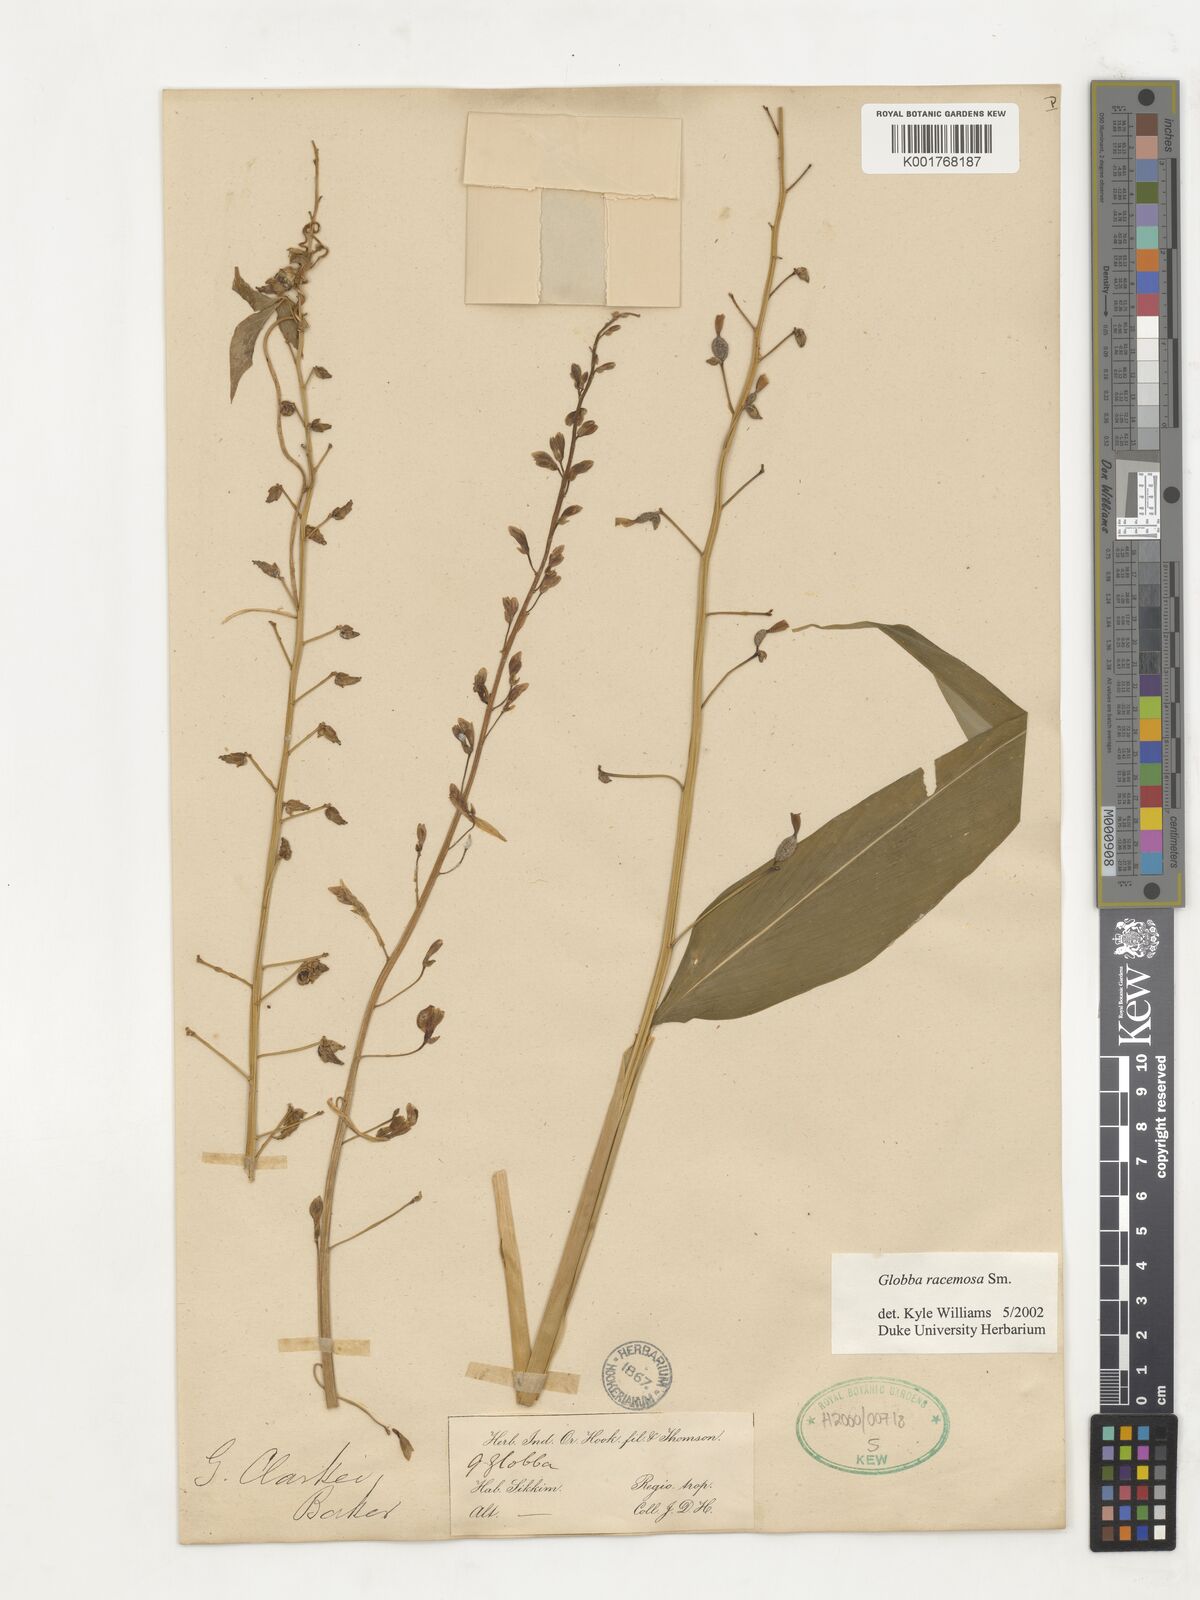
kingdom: Plantae
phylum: Tracheophyta
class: Liliopsida
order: Zingiberales
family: Zingiberaceae
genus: Globba
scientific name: Globba racemosa
